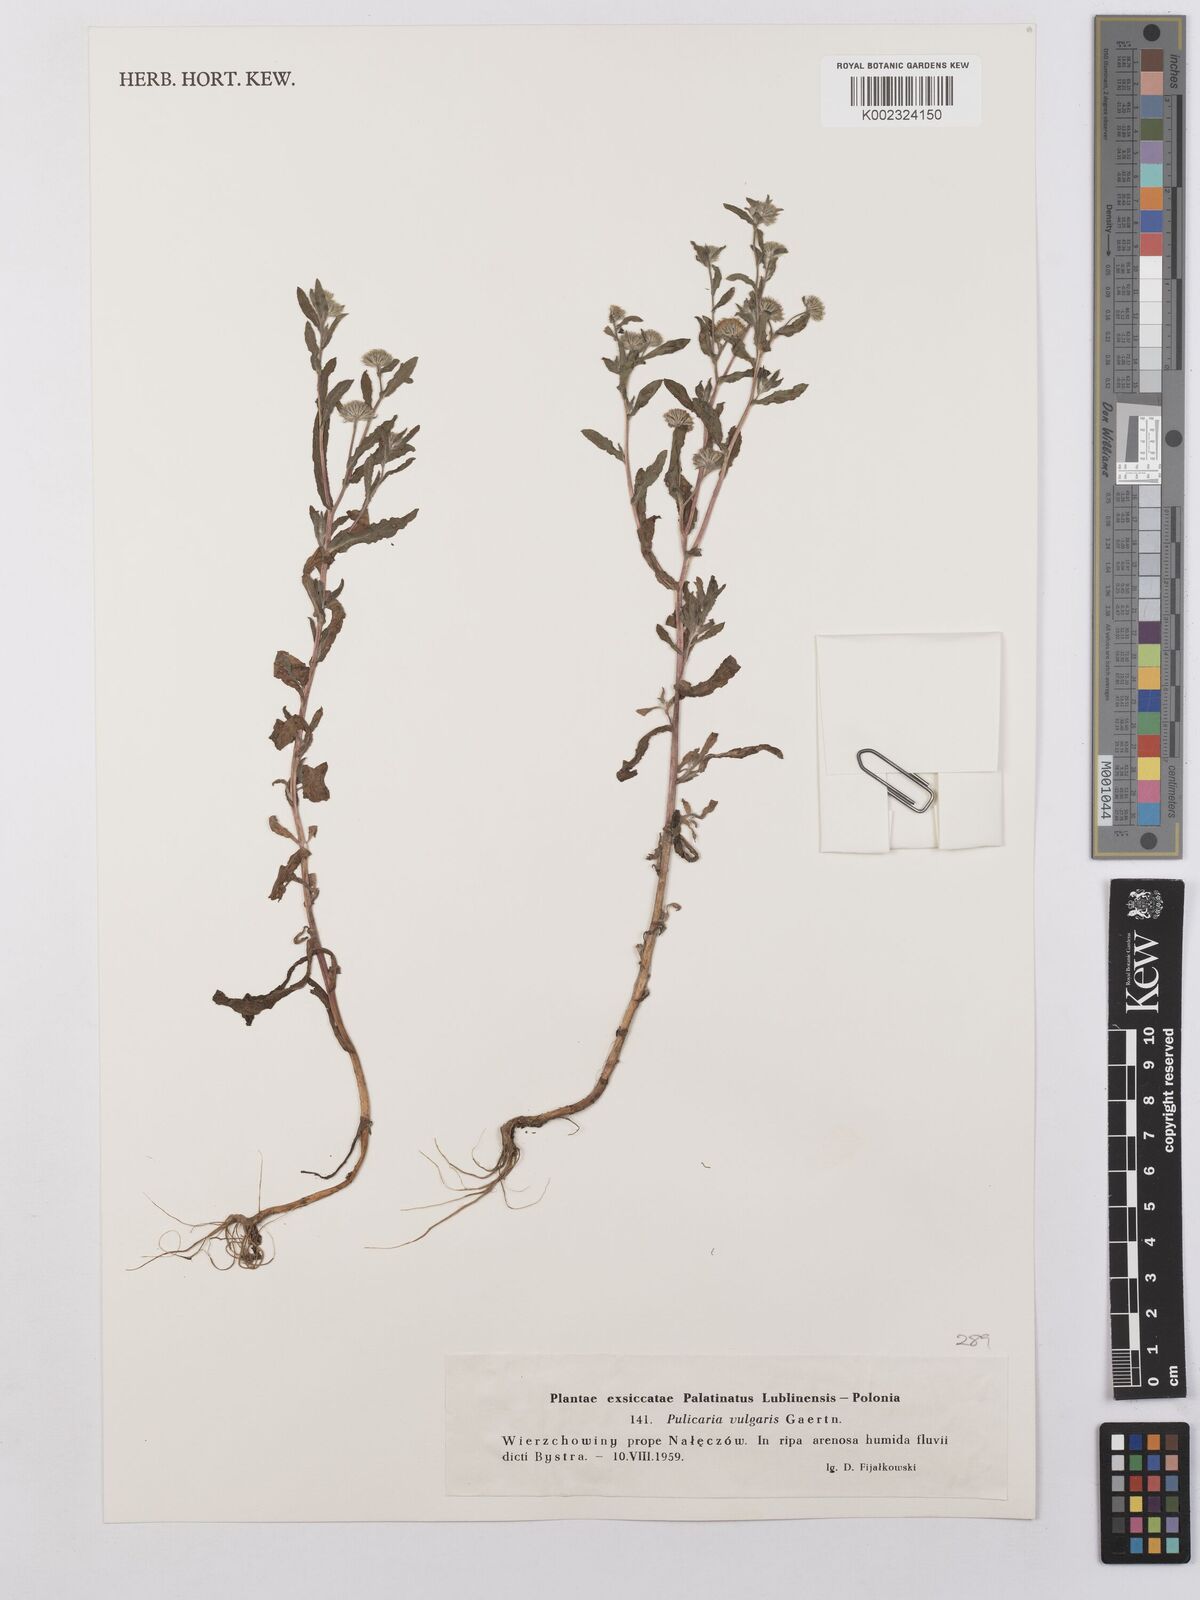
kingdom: Plantae
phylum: Tracheophyta
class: Magnoliopsida
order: Asterales
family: Asteraceae
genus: Pulicaria
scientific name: Pulicaria vulgaris
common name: Small fleabane
